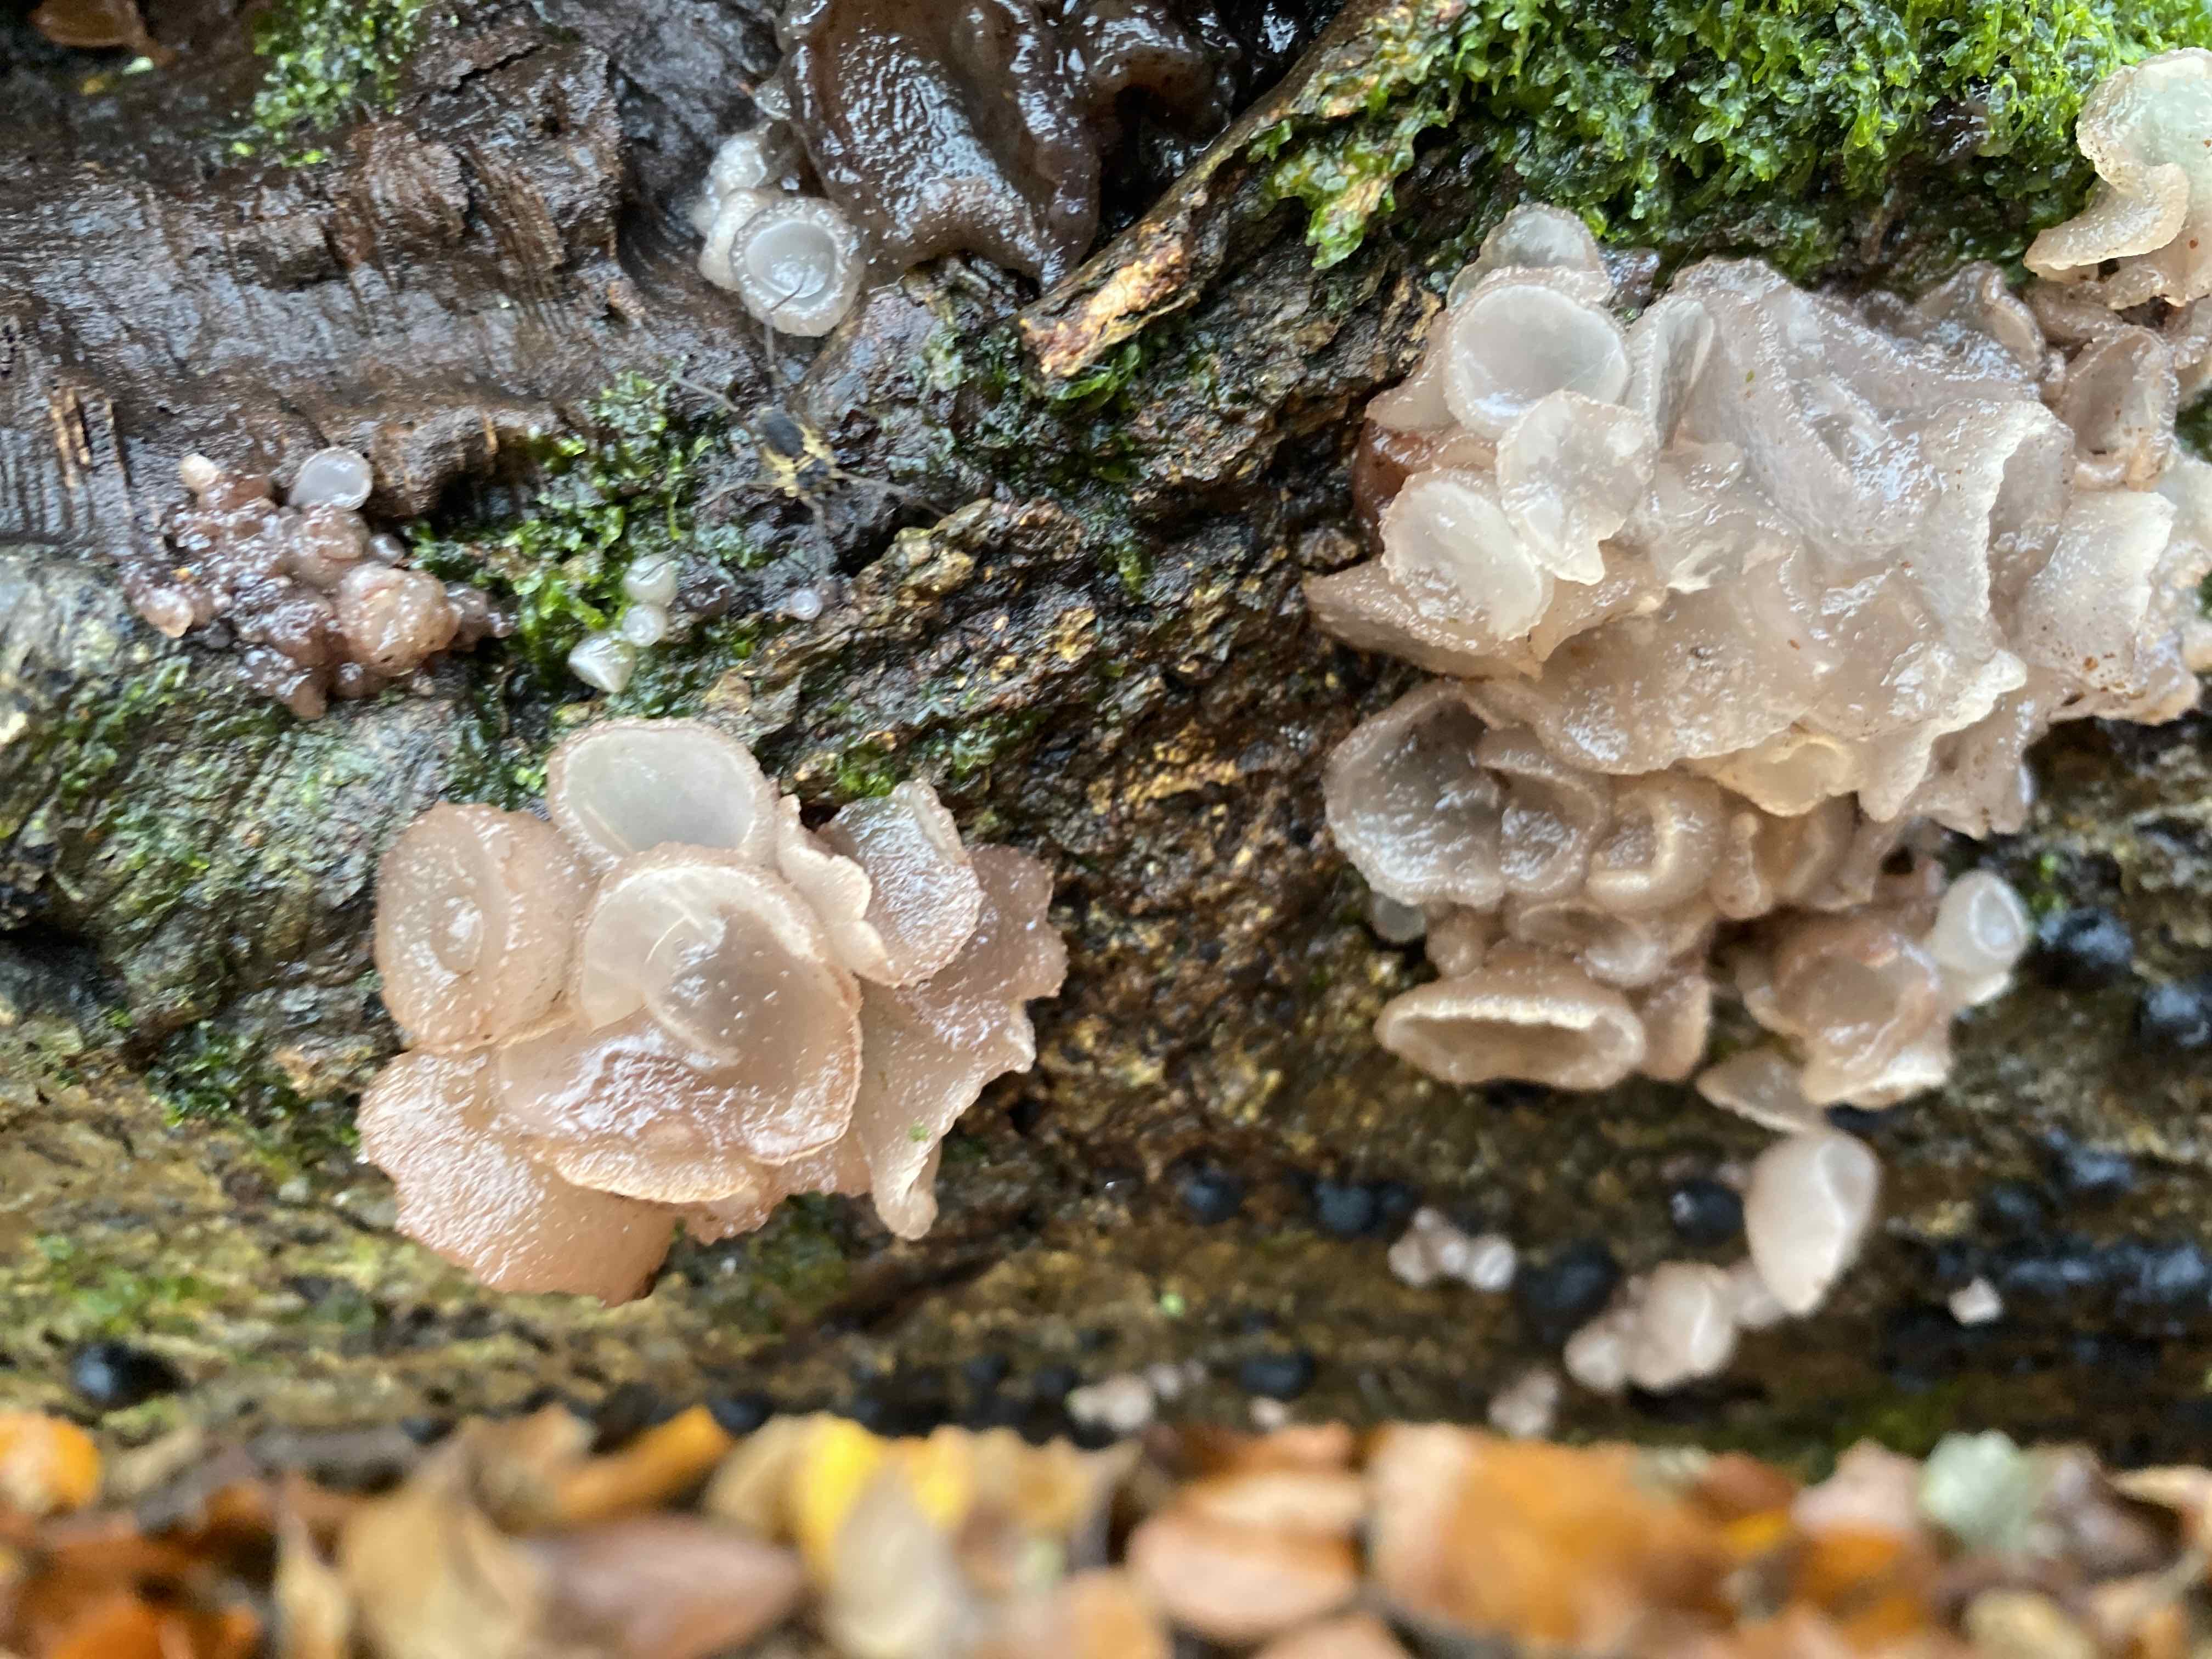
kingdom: Fungi
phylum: Ascomycota
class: Leotiomycetes
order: Helotiales
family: Gelatinodiscaceae
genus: Neobulgaria
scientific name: Neobulgaria pura
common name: bleg bævreskive
